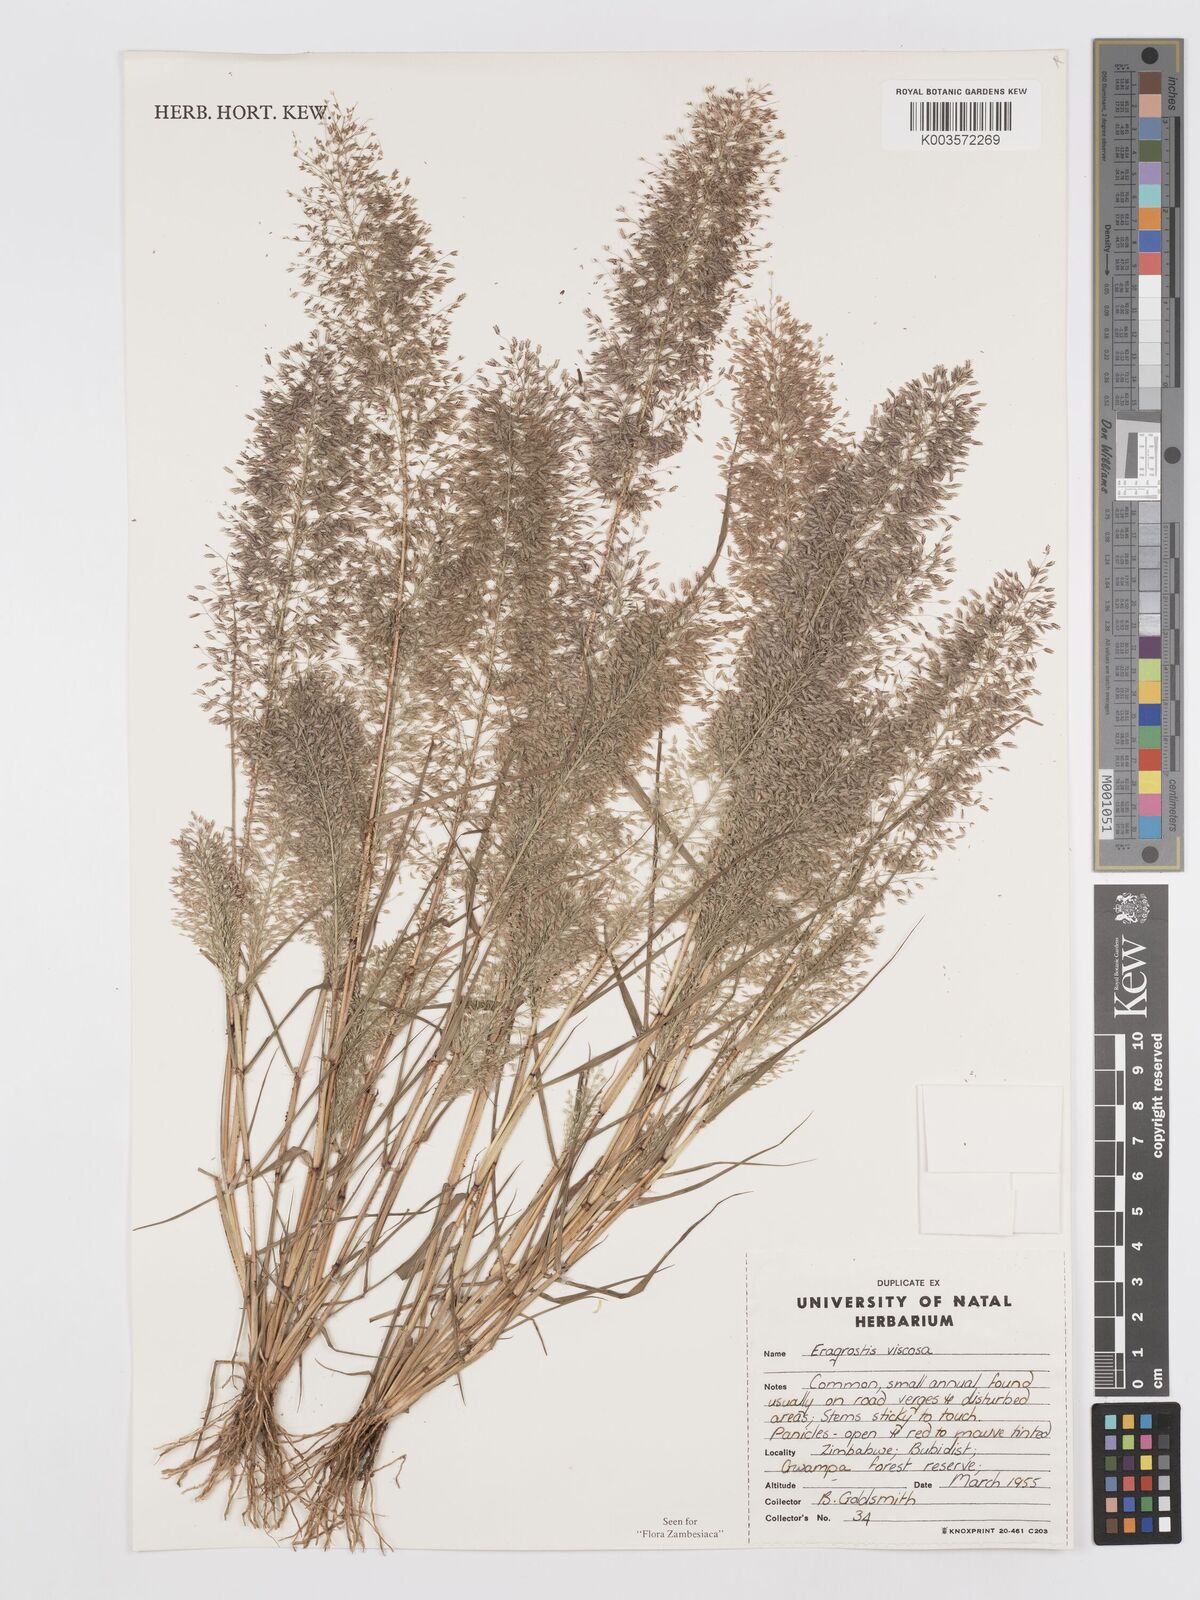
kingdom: Plantae
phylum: Tracheophyta
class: Liliopsida
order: Poales
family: Poaceae
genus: Eragrostis
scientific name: Eragrostis
